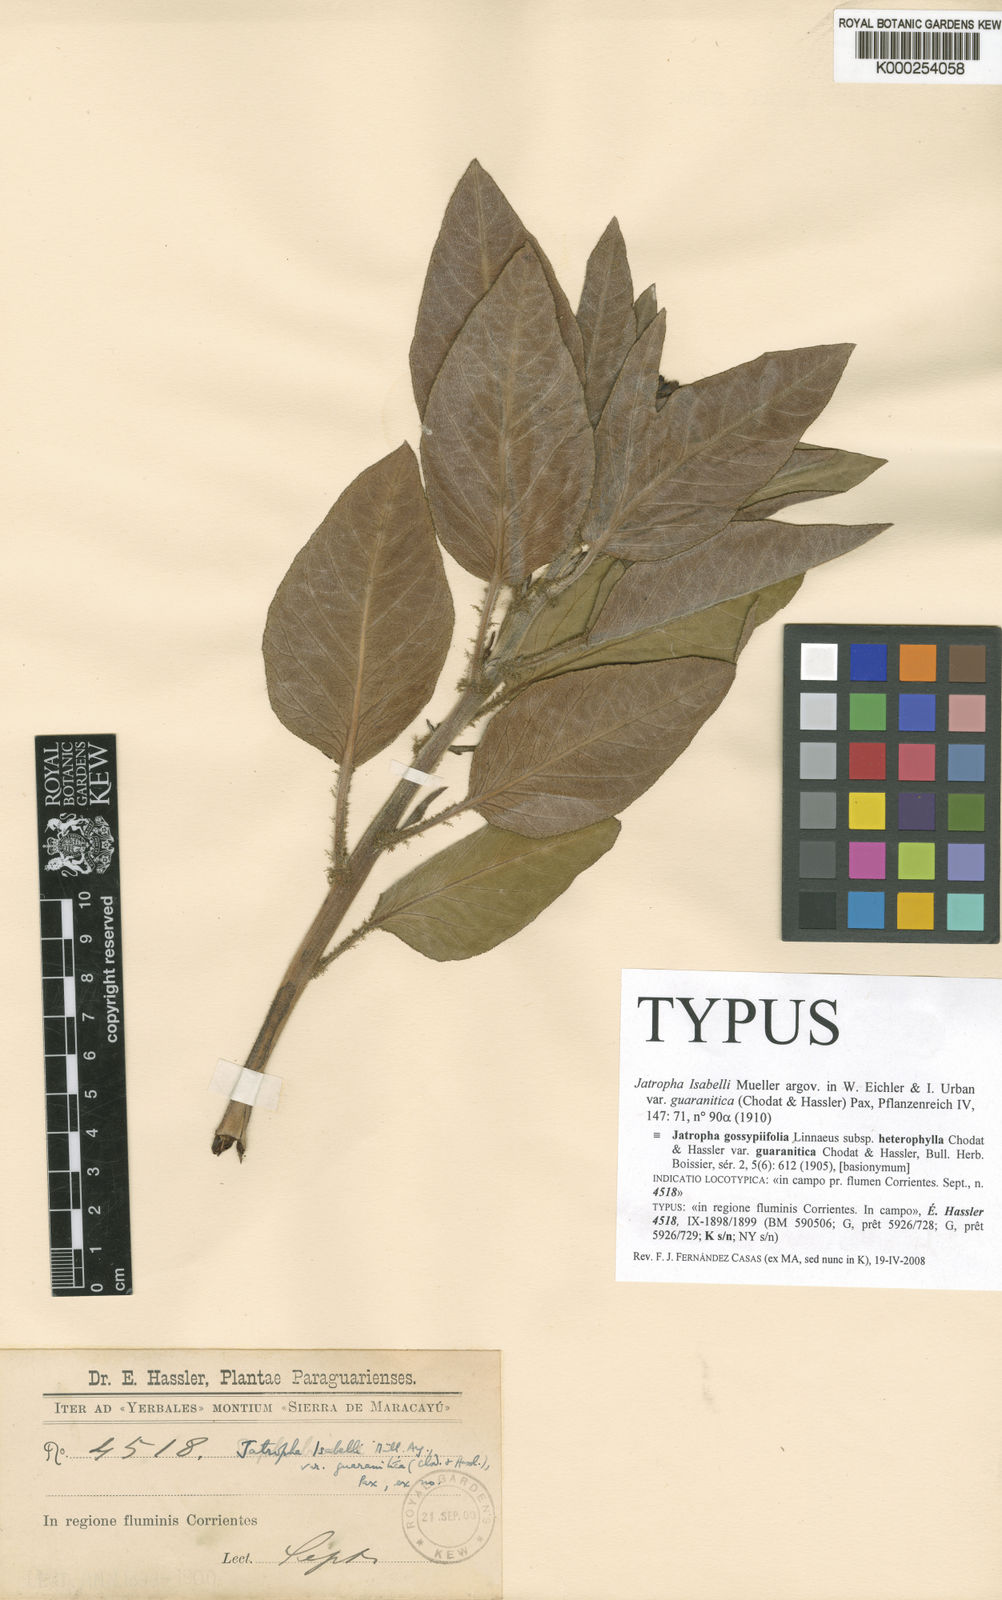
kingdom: Plantae
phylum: Tracheophyta
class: Magnoliopsida
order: Malpighiales
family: Euphorbiaceae
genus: Jatropha
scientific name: Jatropha
